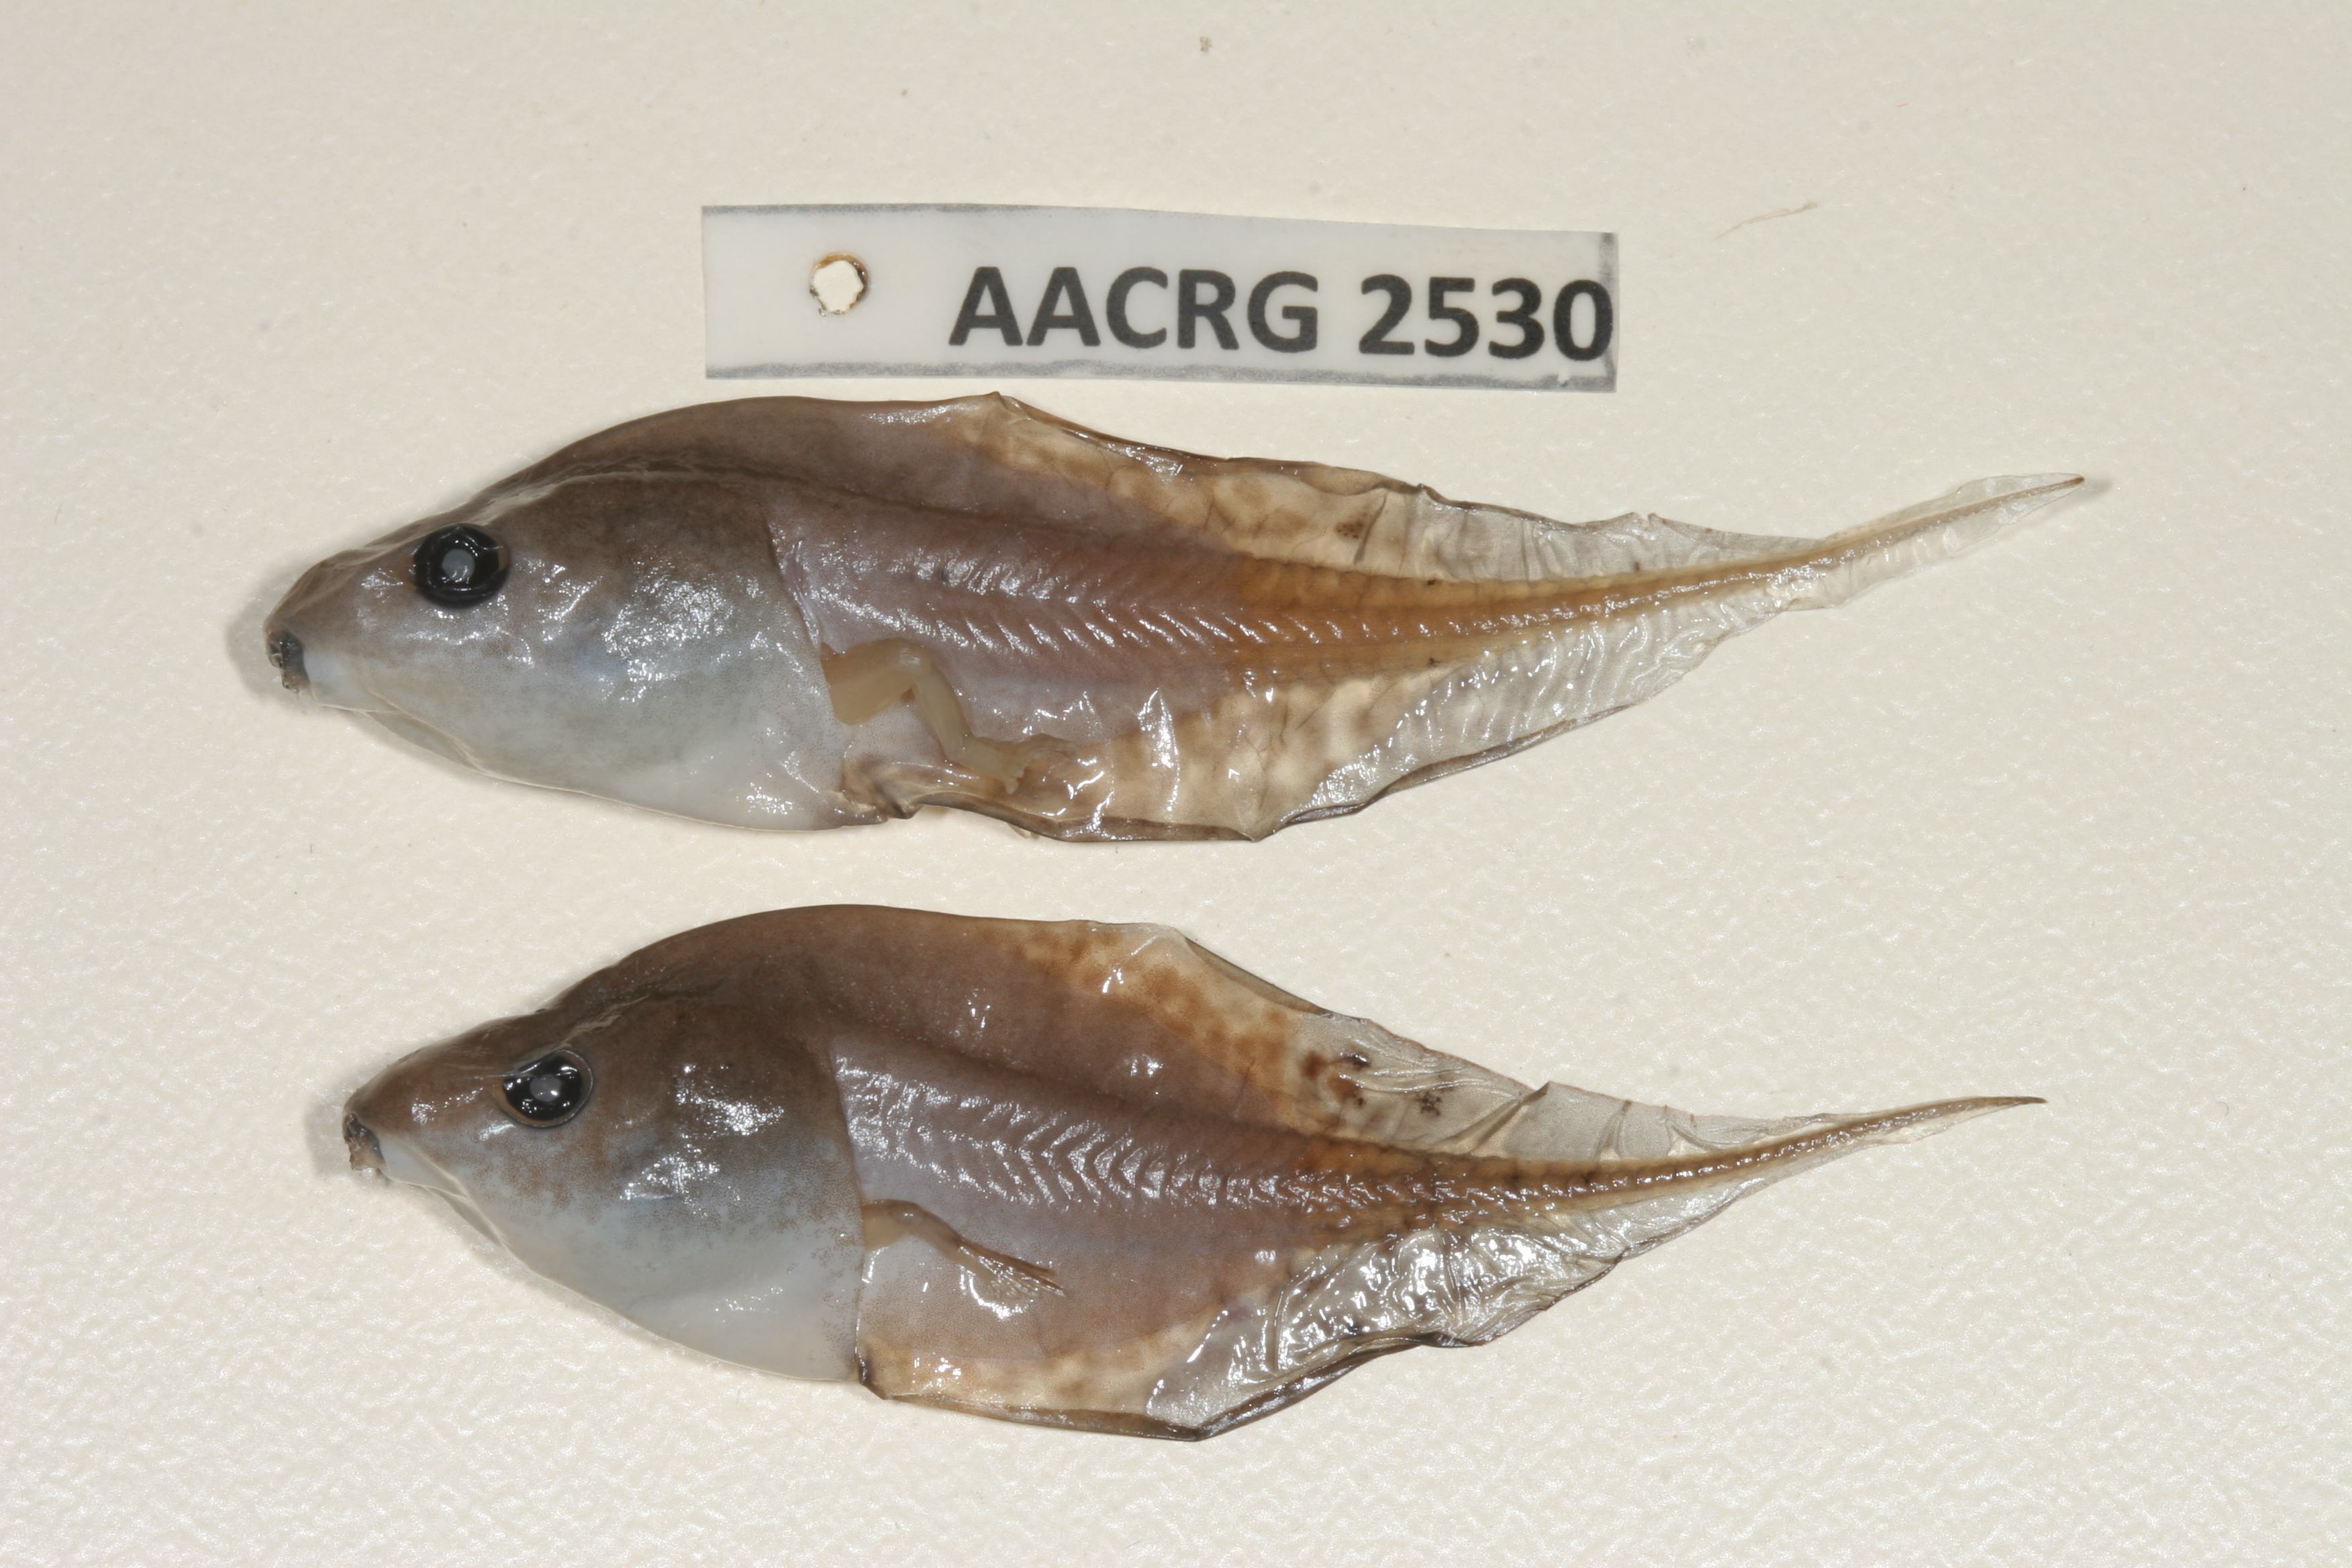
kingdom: Animalia
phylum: Chordata
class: Amphibia
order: Anura
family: Hyperoliidae
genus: Phlyctimantis
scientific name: Phlyctimantis maculatus
